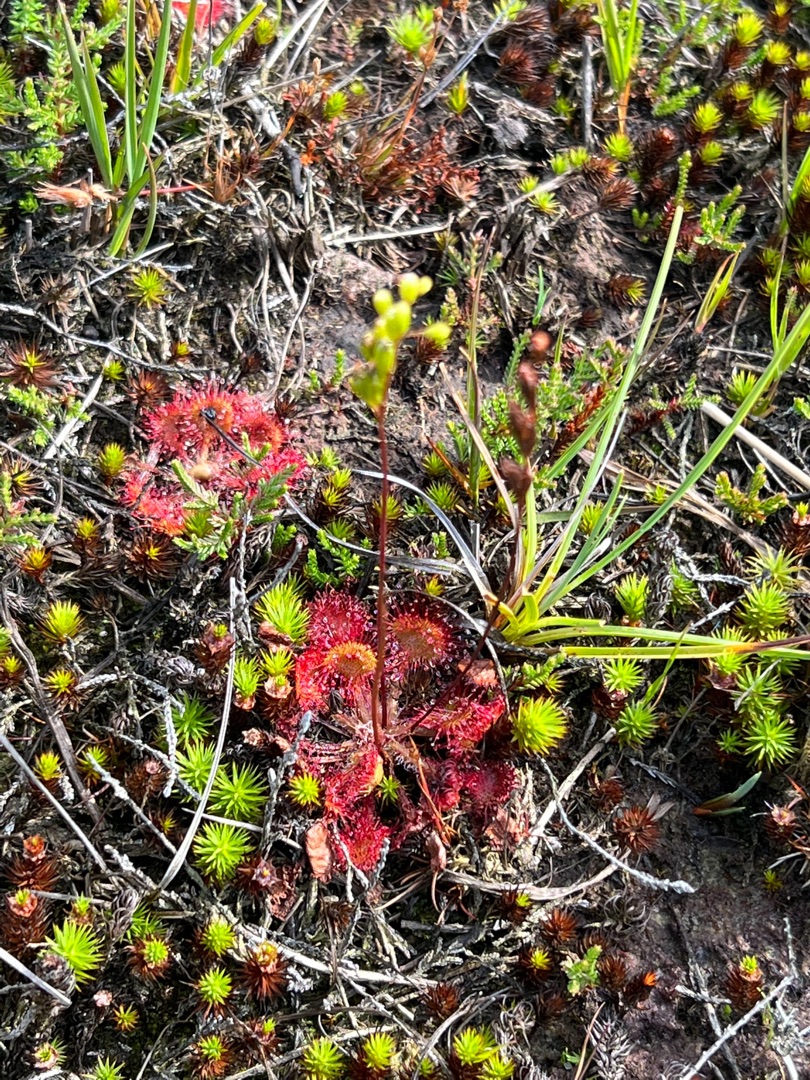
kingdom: Plantae
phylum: Tracheophyta
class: Magnoliopsida
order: Caryophyllales
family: Droseraceae
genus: Drosera
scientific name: Drosera rotundifolia
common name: Rundbladet soldug
